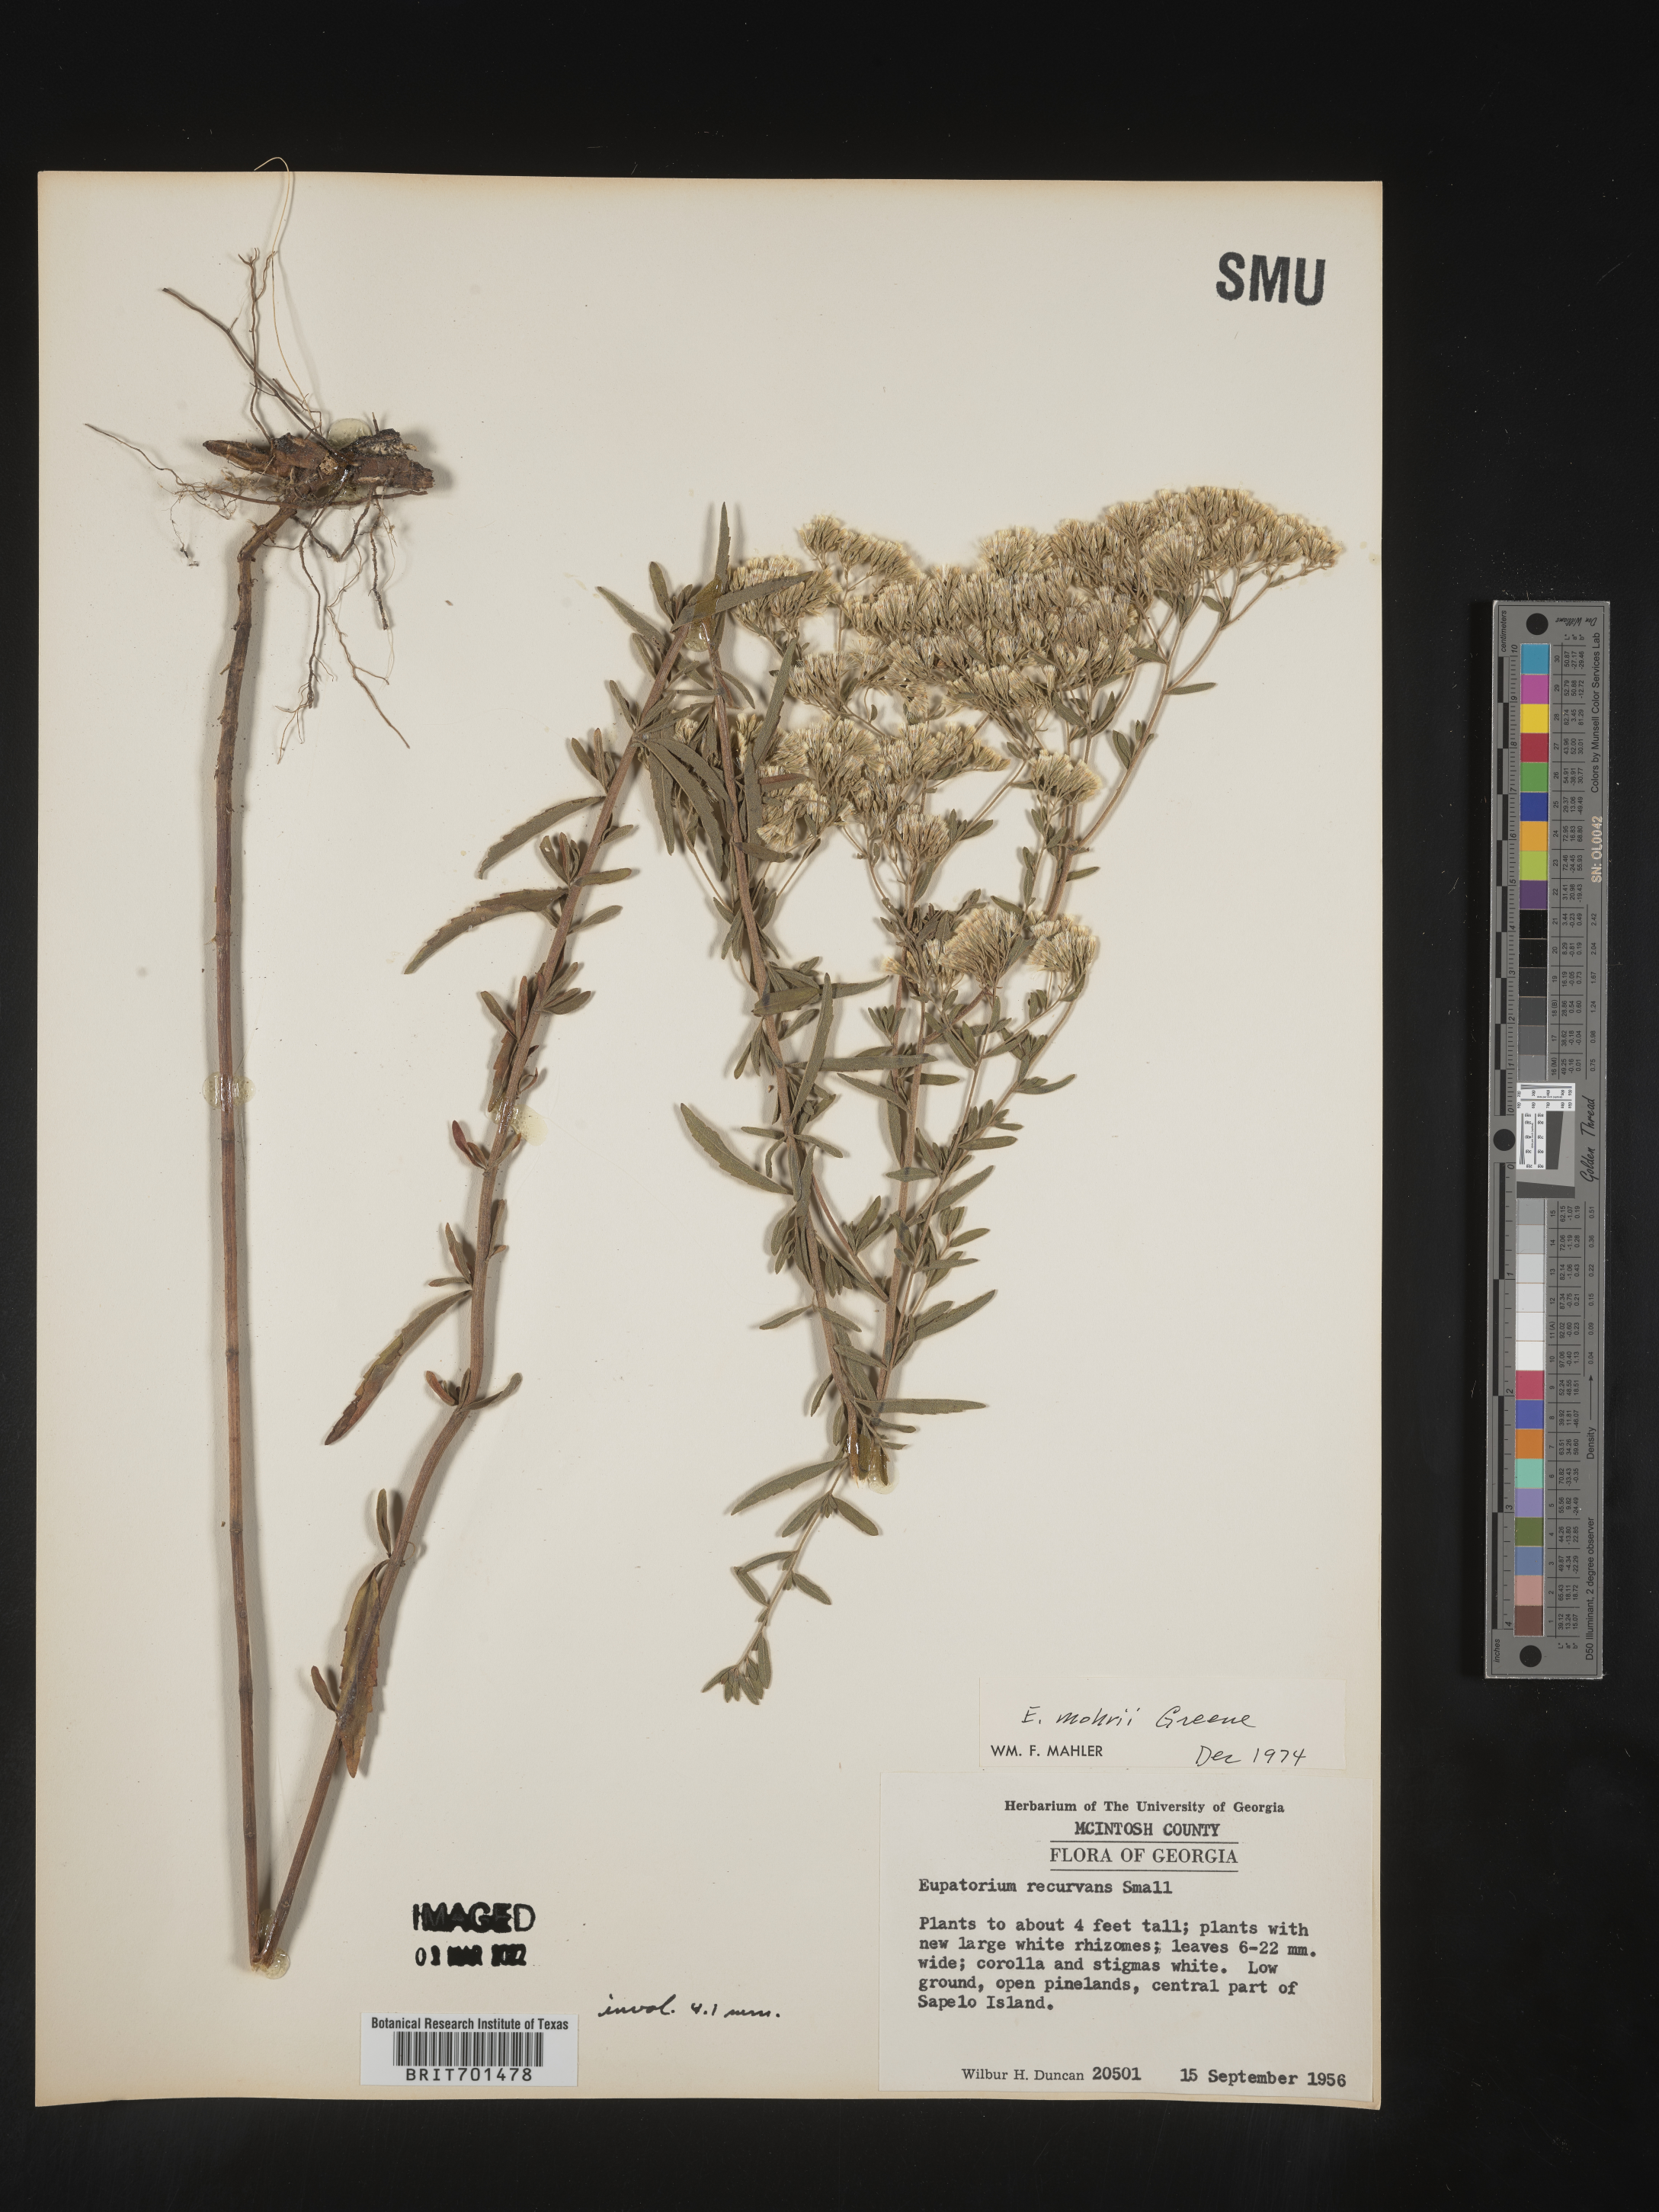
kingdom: Plantae
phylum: Tracheophyta
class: Magnoliopsida
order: Asterales
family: Asteraceae
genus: Eupatorium
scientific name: Eupatorium mohrii
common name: Mohr's thoroughwort
